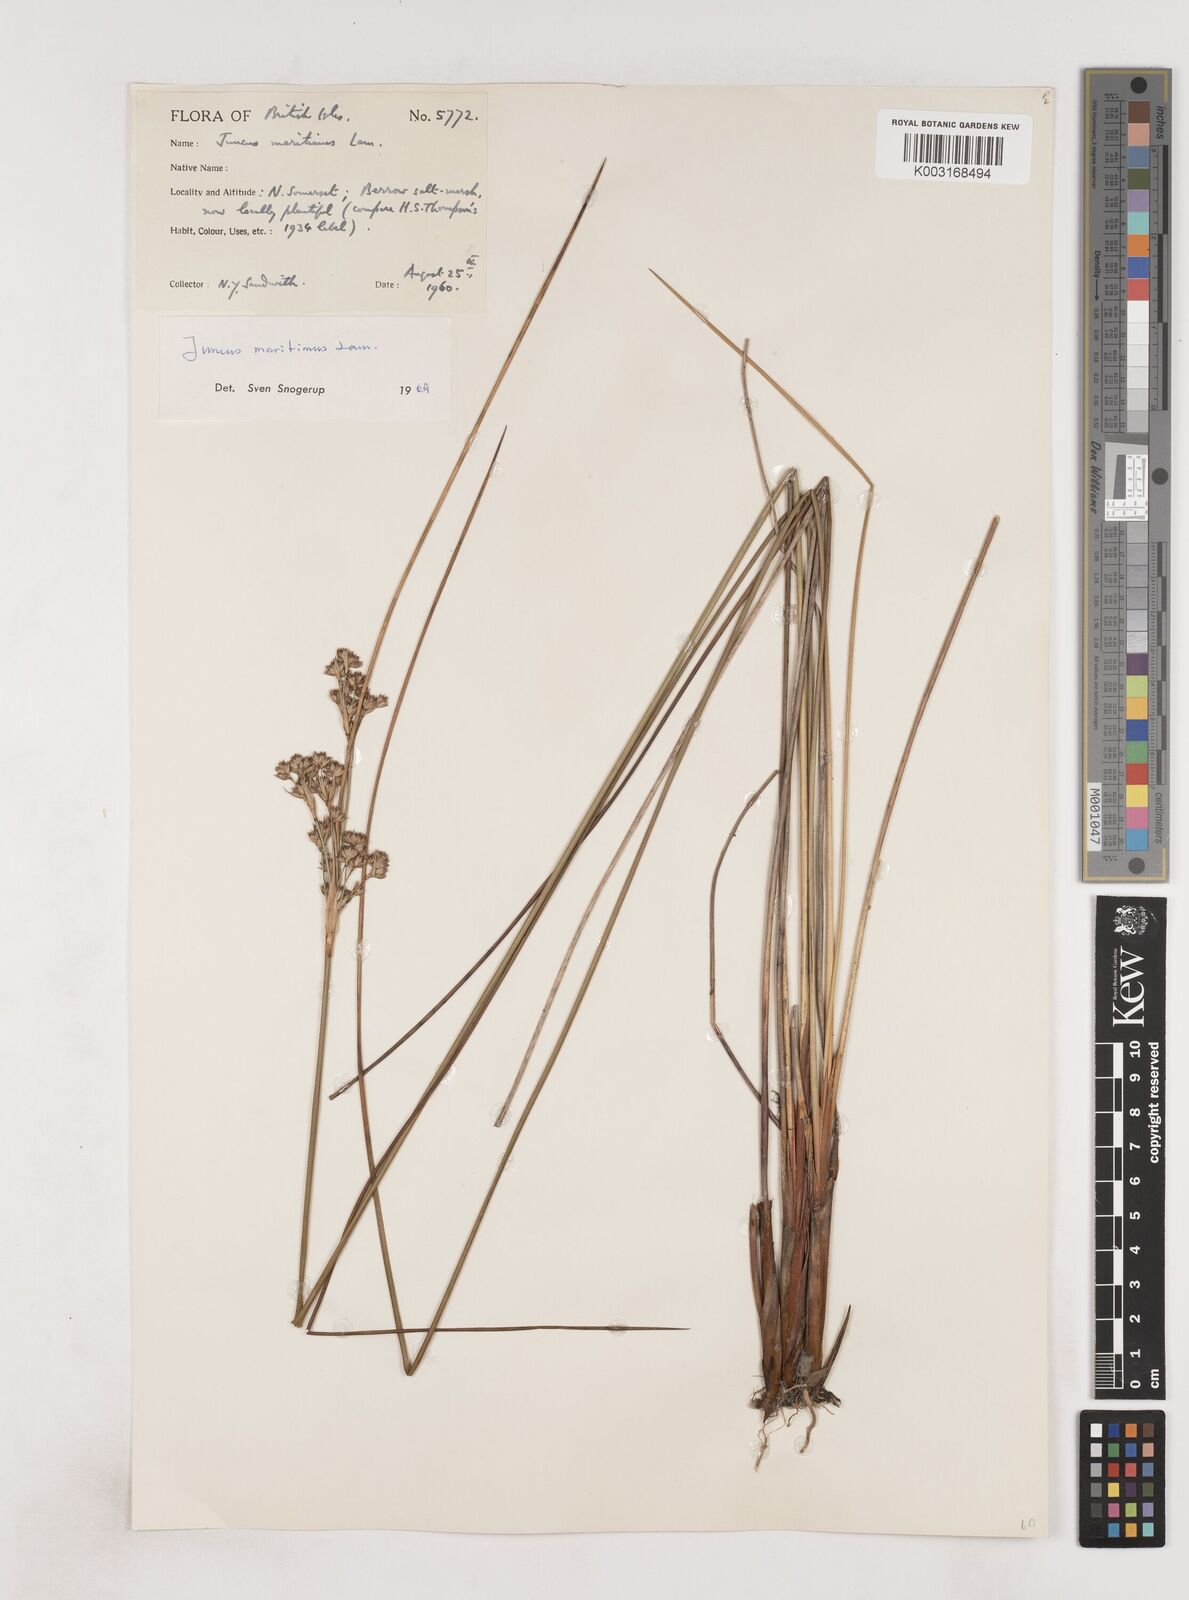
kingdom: Plantae
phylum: Tracheophyta
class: Liliopsida
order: Poales
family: Juncaceae
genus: Juncus
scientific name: Juncus maritimus
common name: Sea rush
